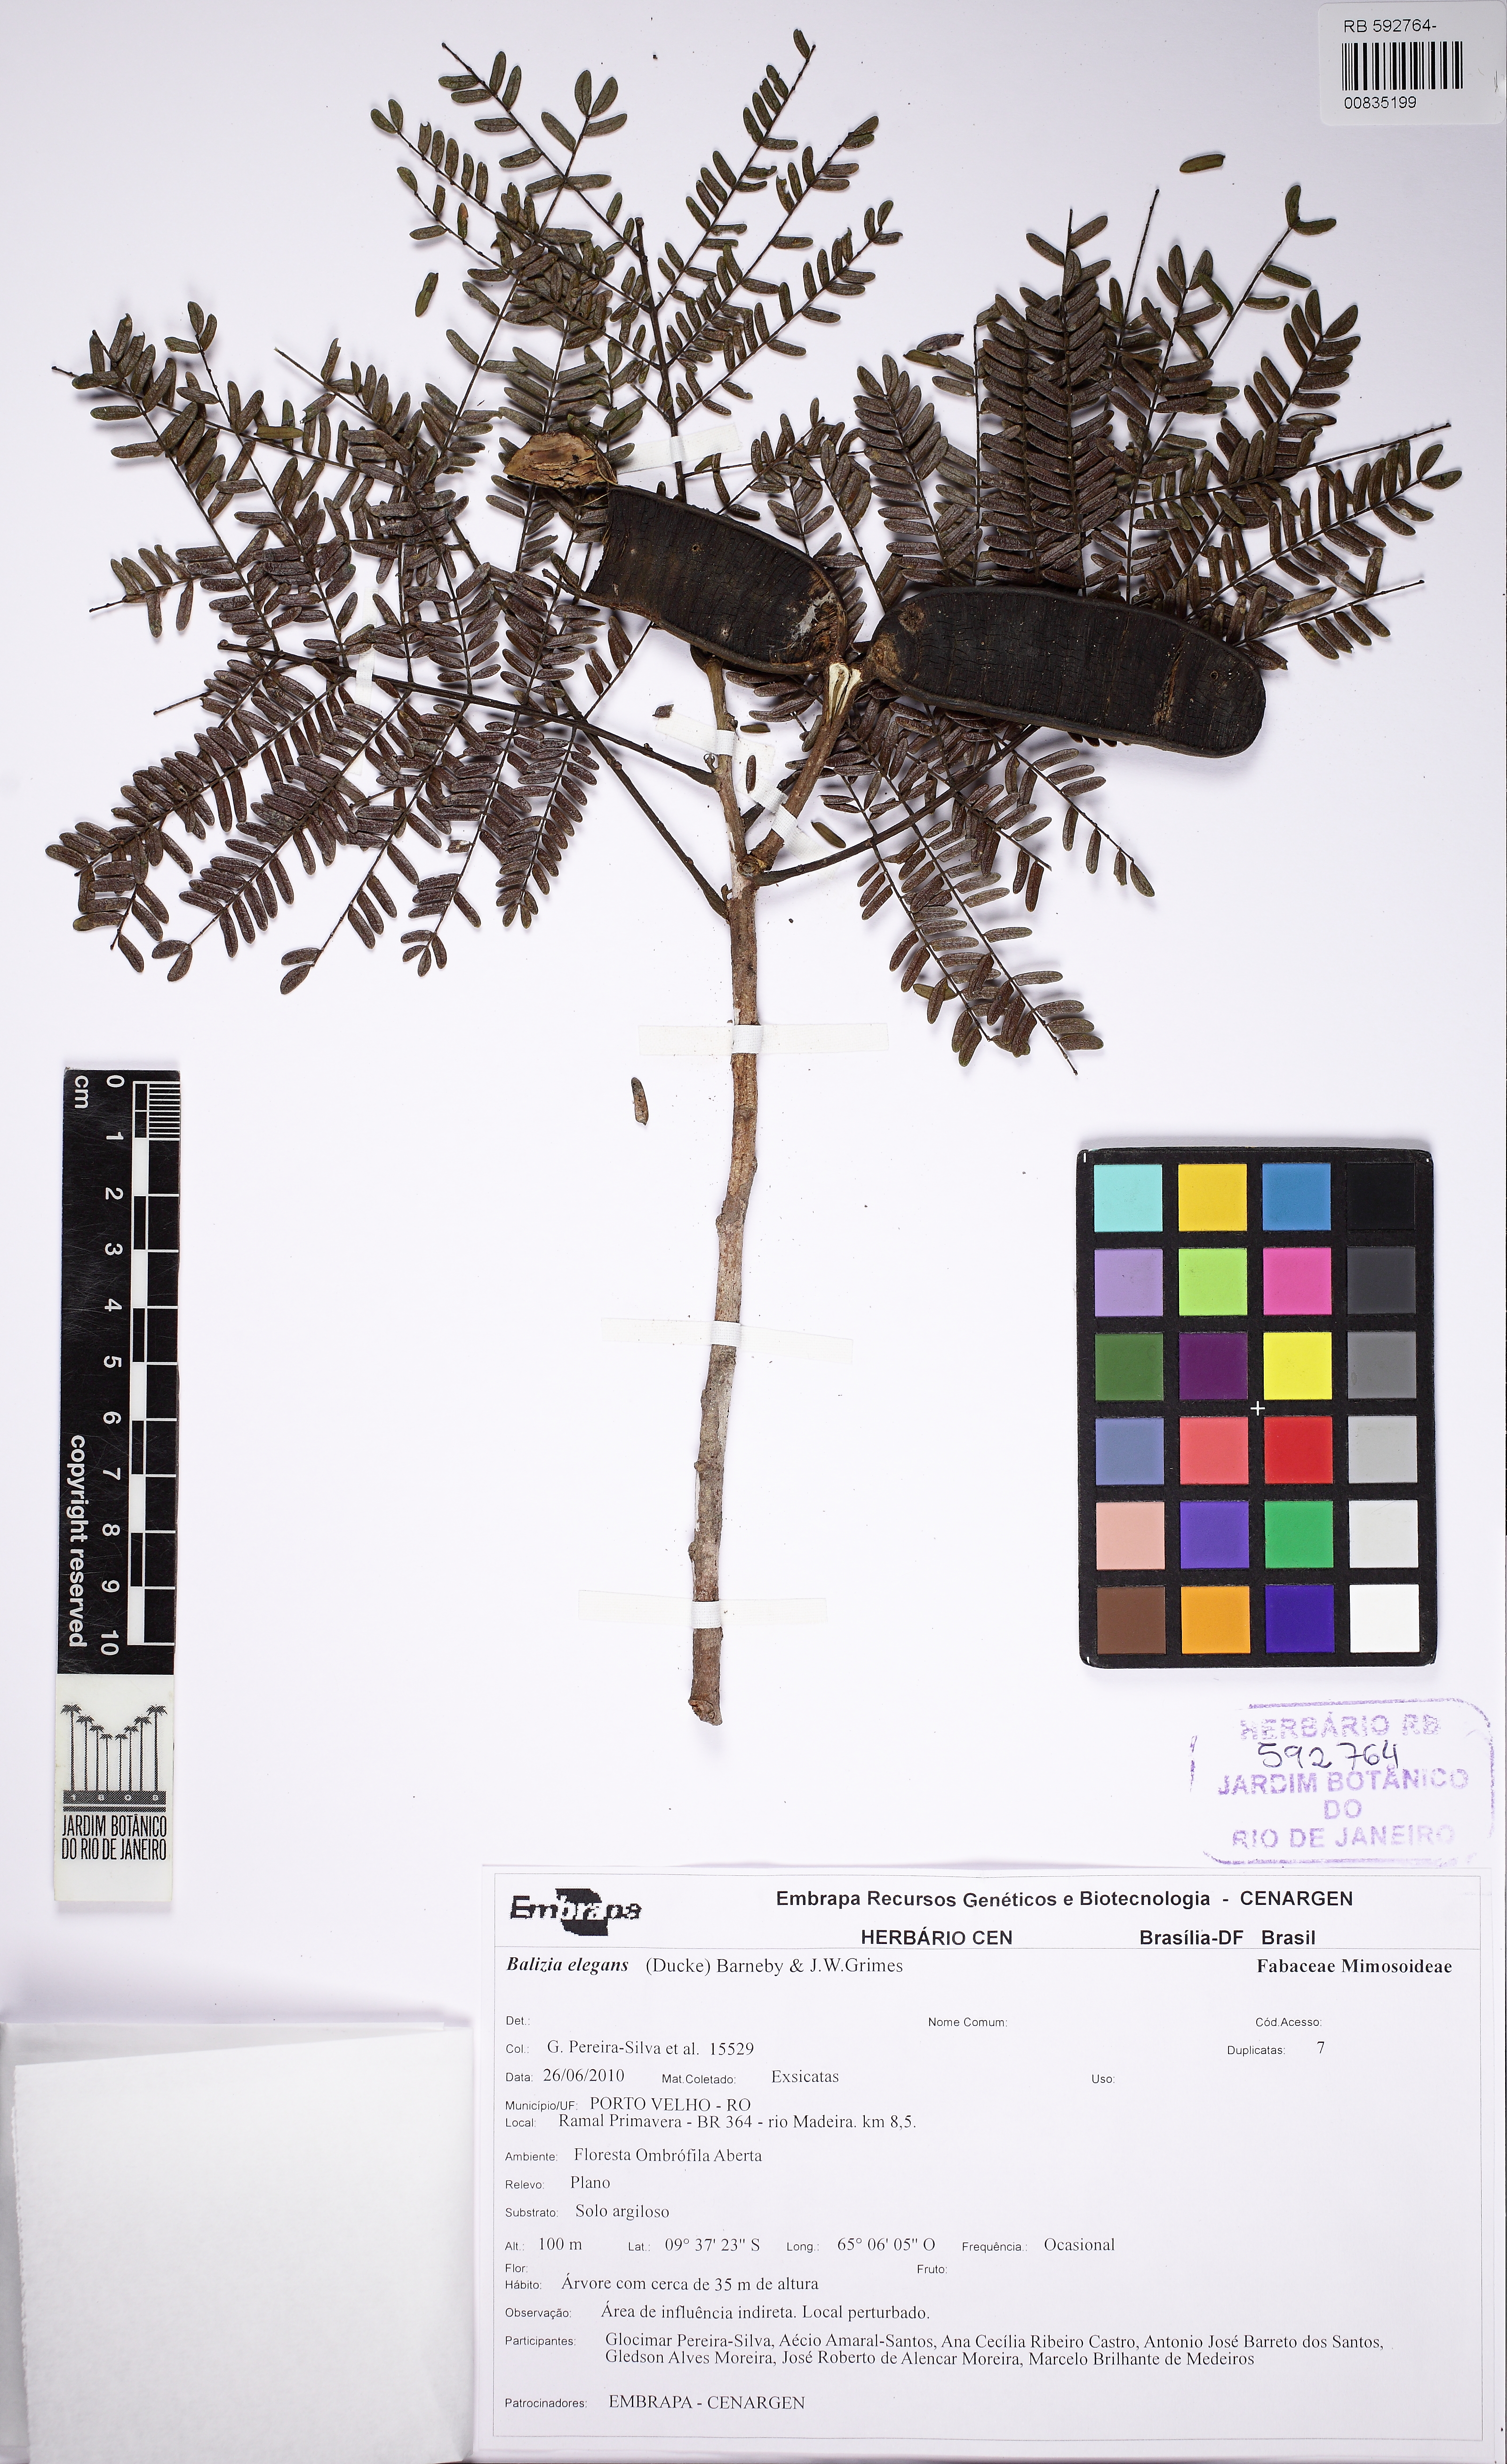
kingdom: Plantae
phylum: Tracheophyta
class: Magnoliopsida
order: Fabales
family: Fabaceae
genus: Balizia
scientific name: Balizia pedicellaris
